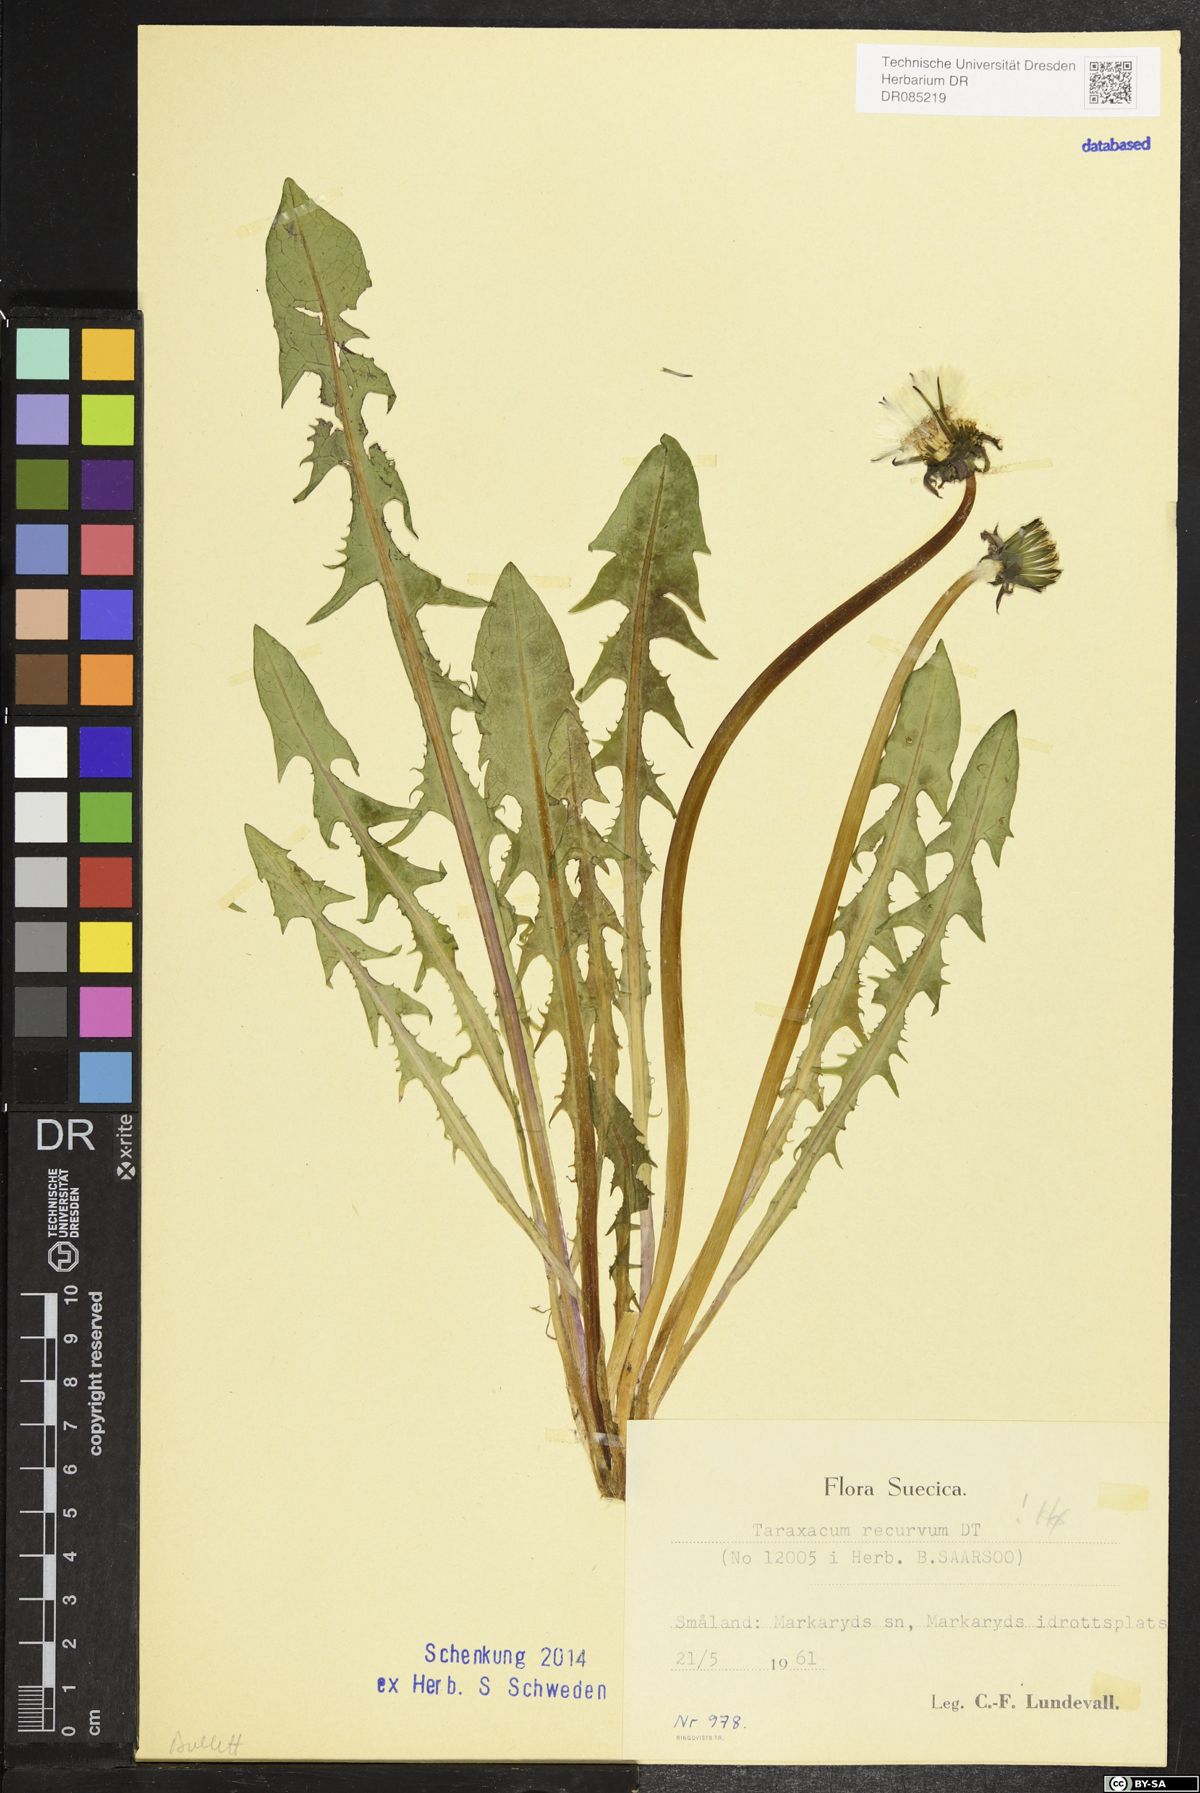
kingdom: Plantae
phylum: Tracheophyta
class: Magnoliopsida
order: Asterales
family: Asteraceae
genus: Taraxacum
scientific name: Taraxacum recurvum
